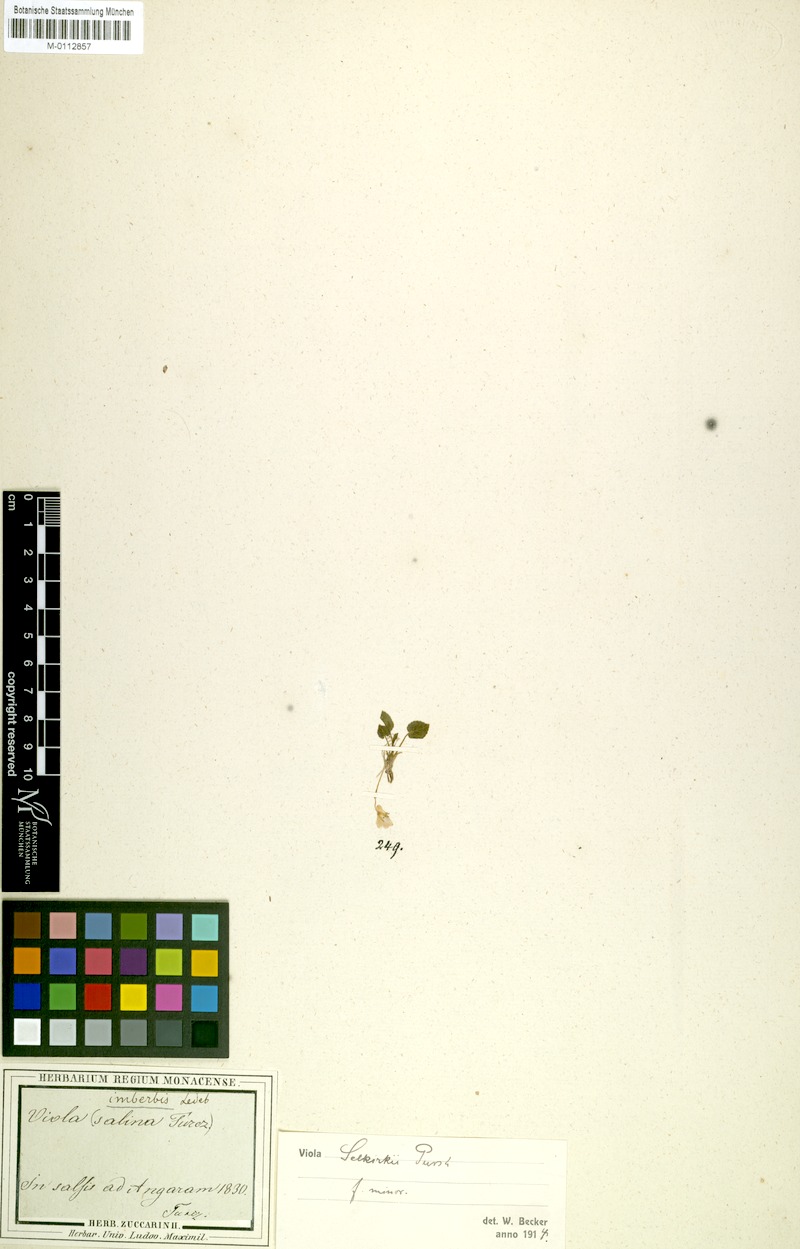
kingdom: Plantae
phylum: Tracheophyta
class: Magnoliopsida
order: Malpighiales
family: Violaceae
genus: Viola
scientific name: Viola selkirkii
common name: Selkirk's violet
